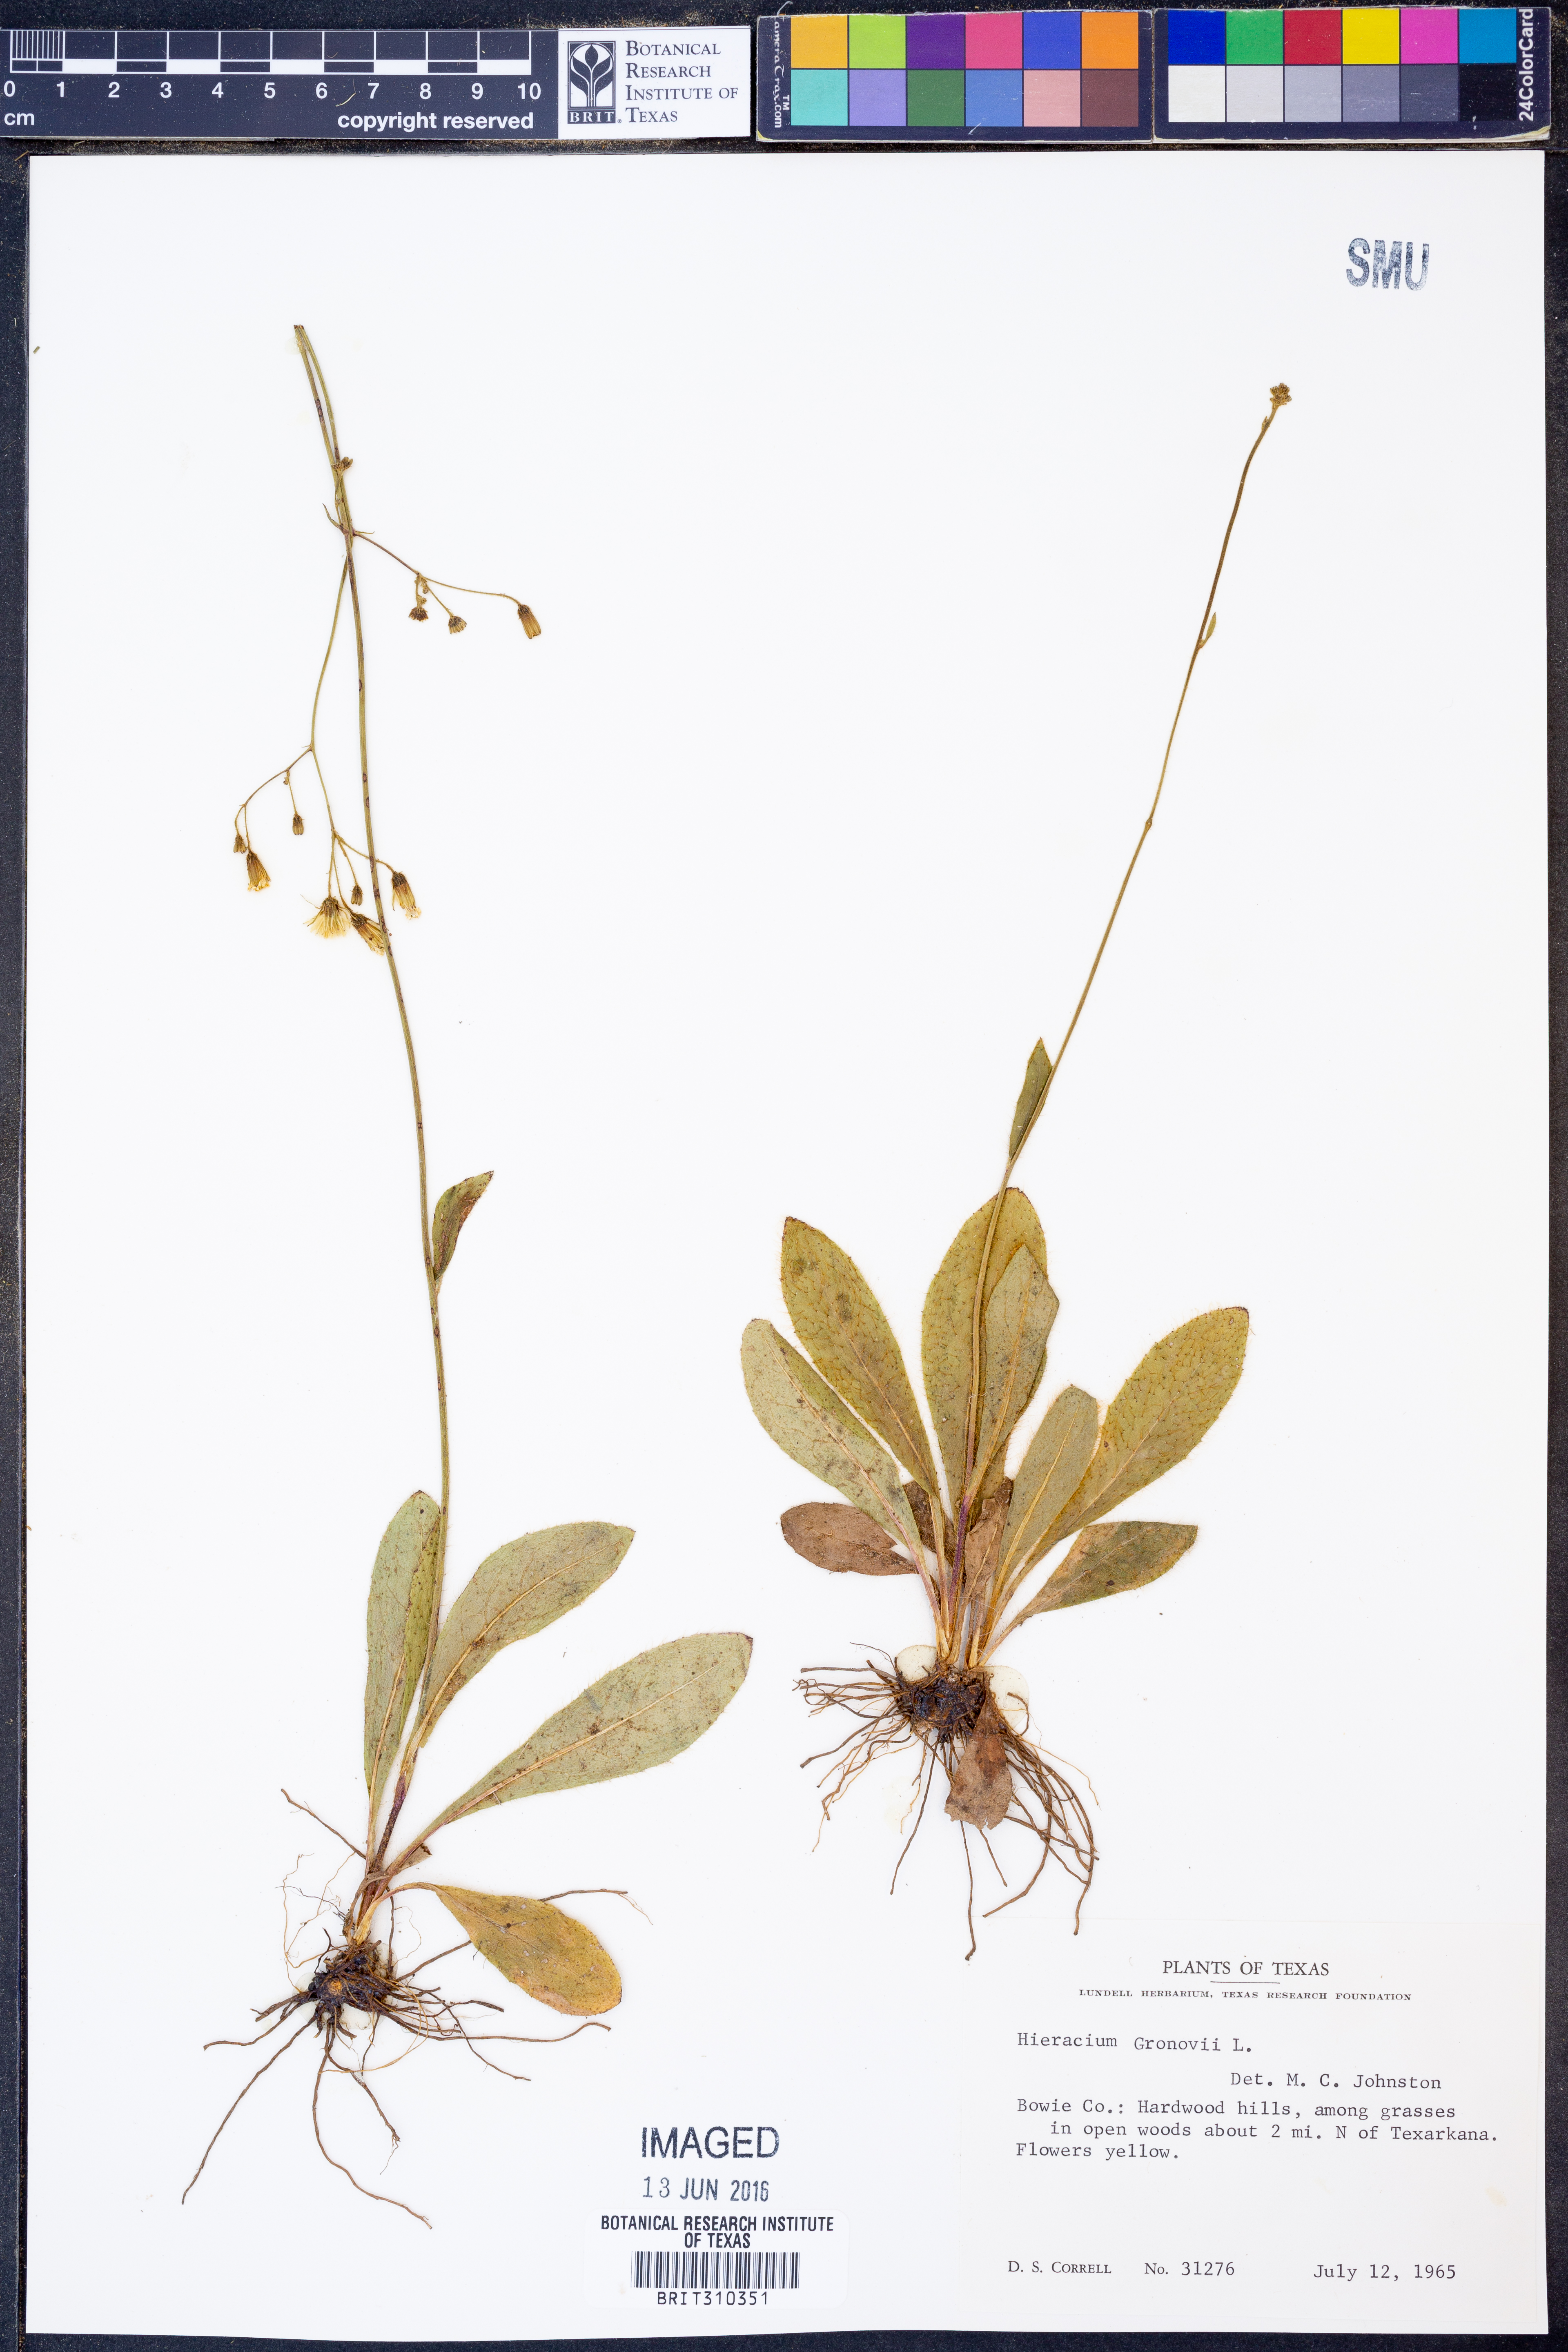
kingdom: Plantae
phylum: Tracheophyta
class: Magnoliopsida
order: Asterales
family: Asteraceae
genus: Hieracium
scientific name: Hieracium gronovii
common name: Beaked hawkweed
